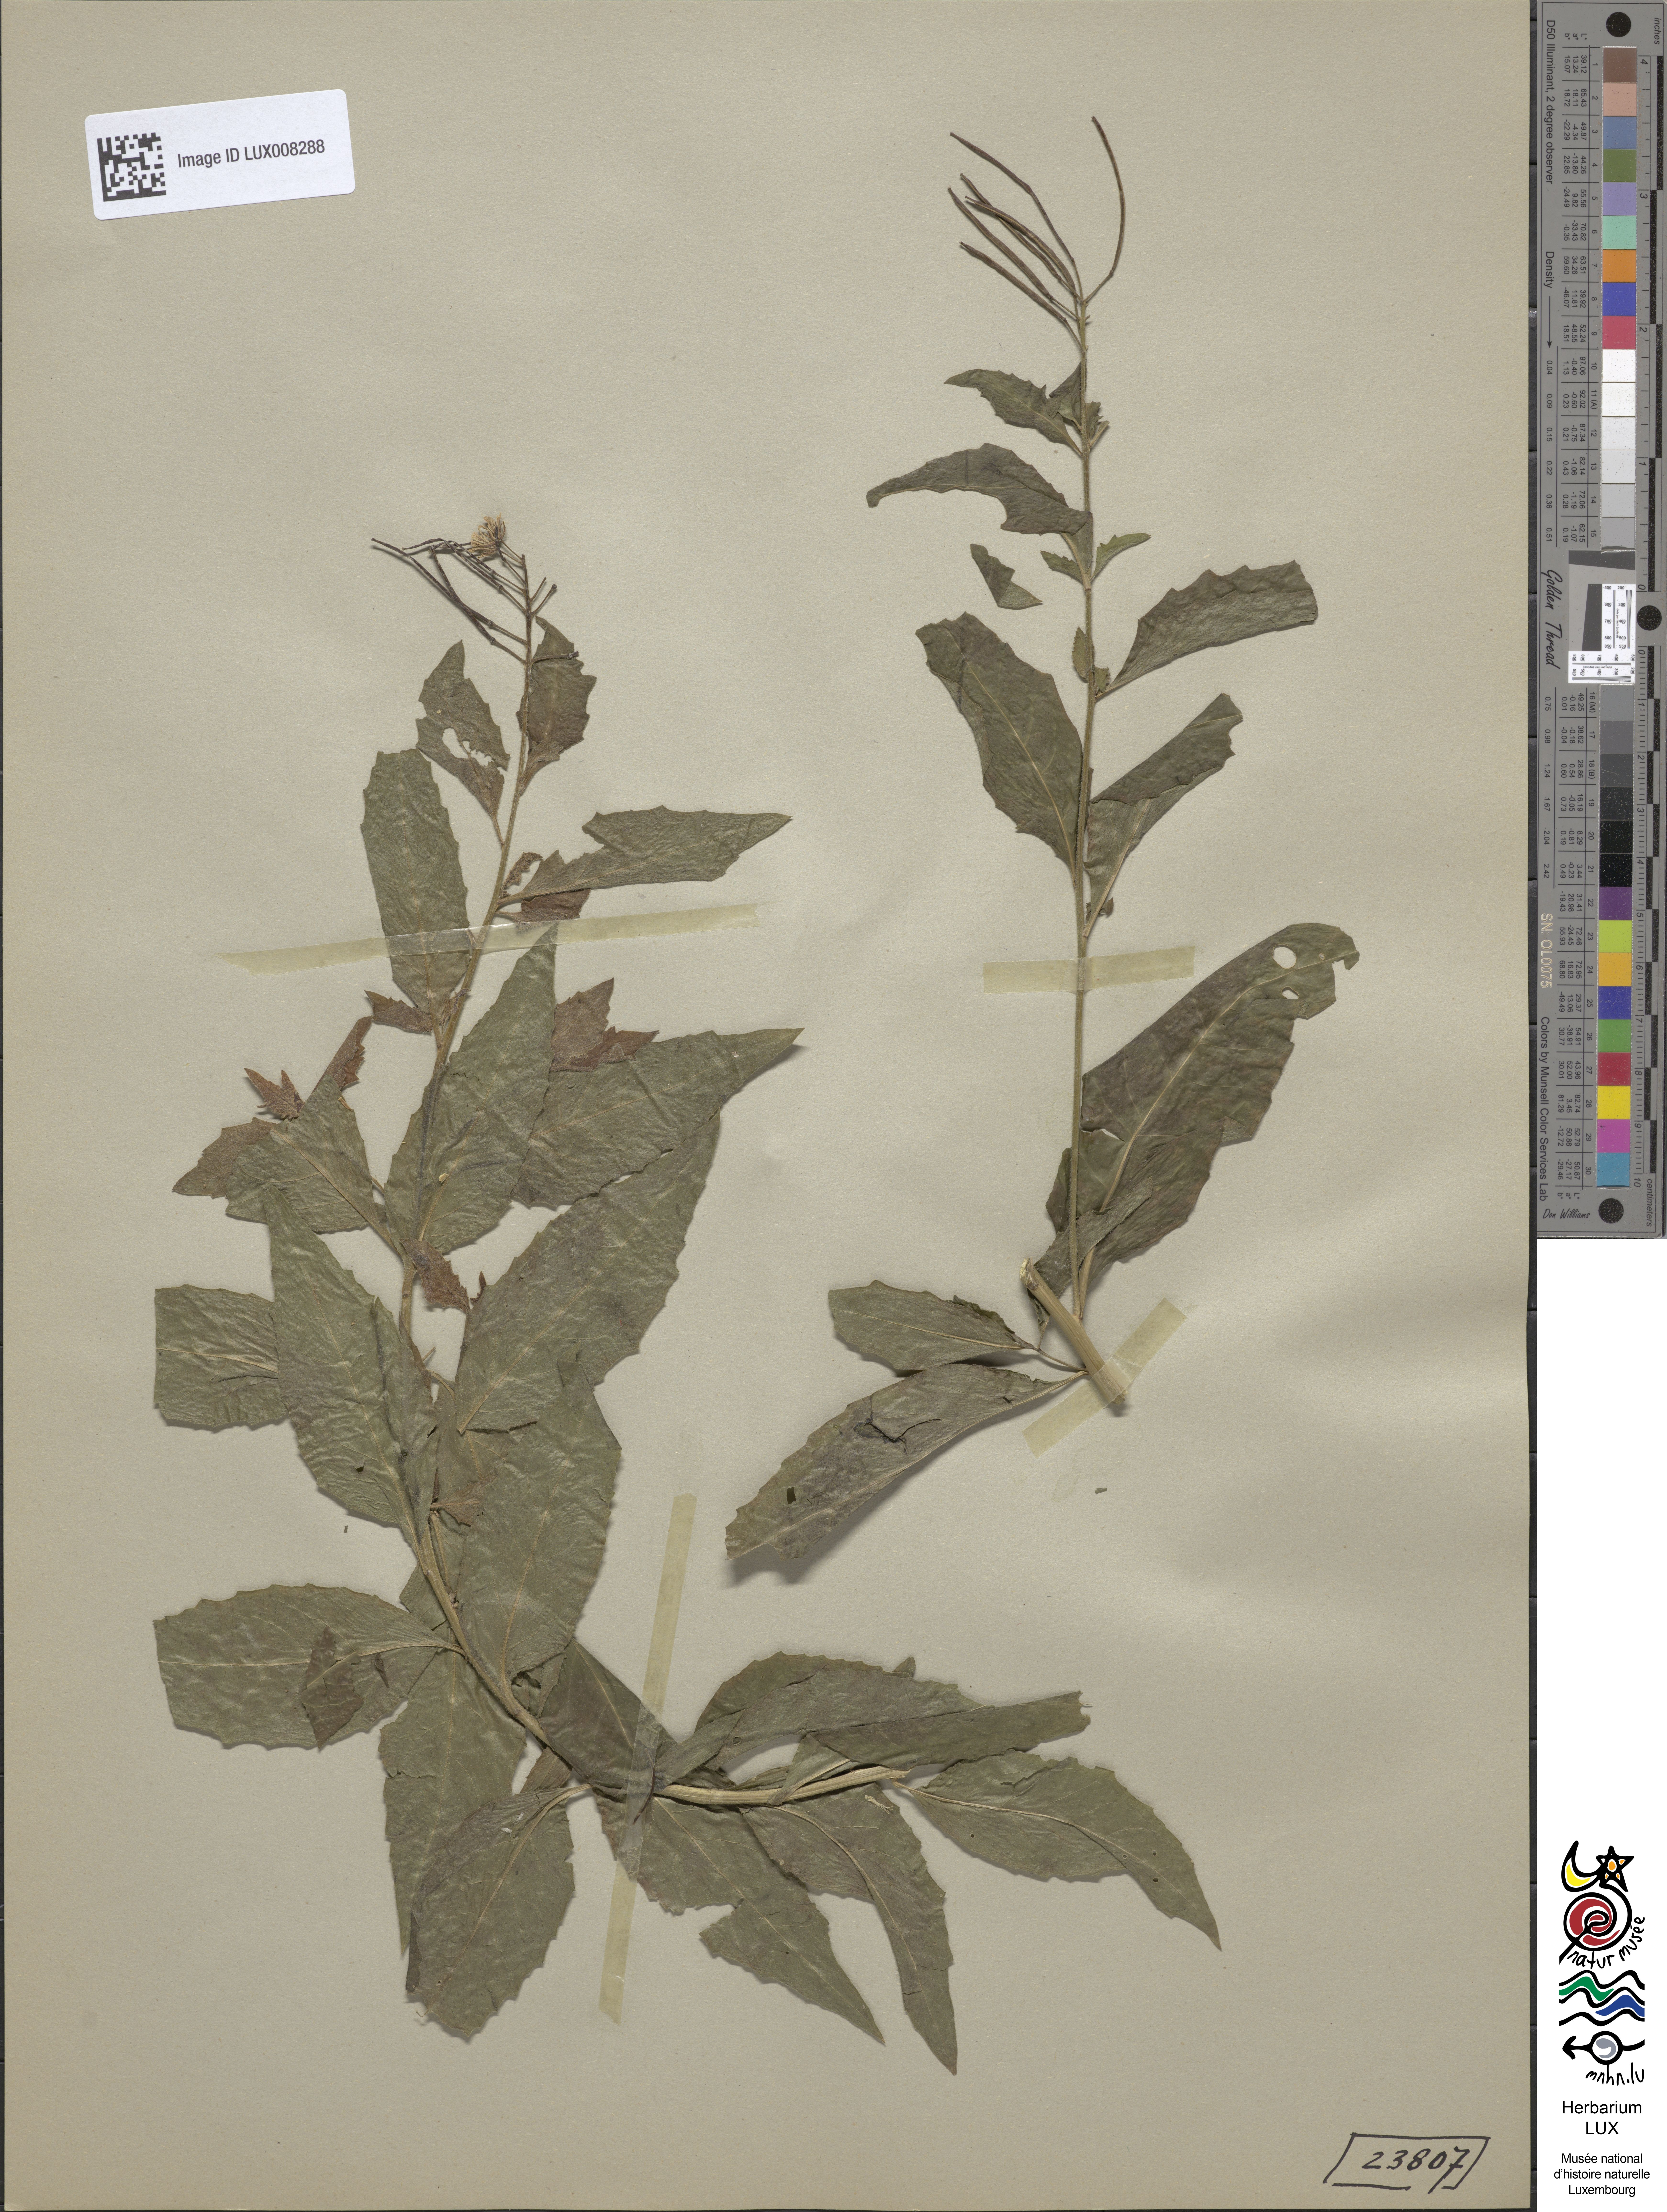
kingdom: Plantae
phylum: Tracheophyta
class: Magnoliopsida
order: Brassicales
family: Brassicaceae
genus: Sisymbrium
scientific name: Sisymbrium strictissimum
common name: Perennial rocket
